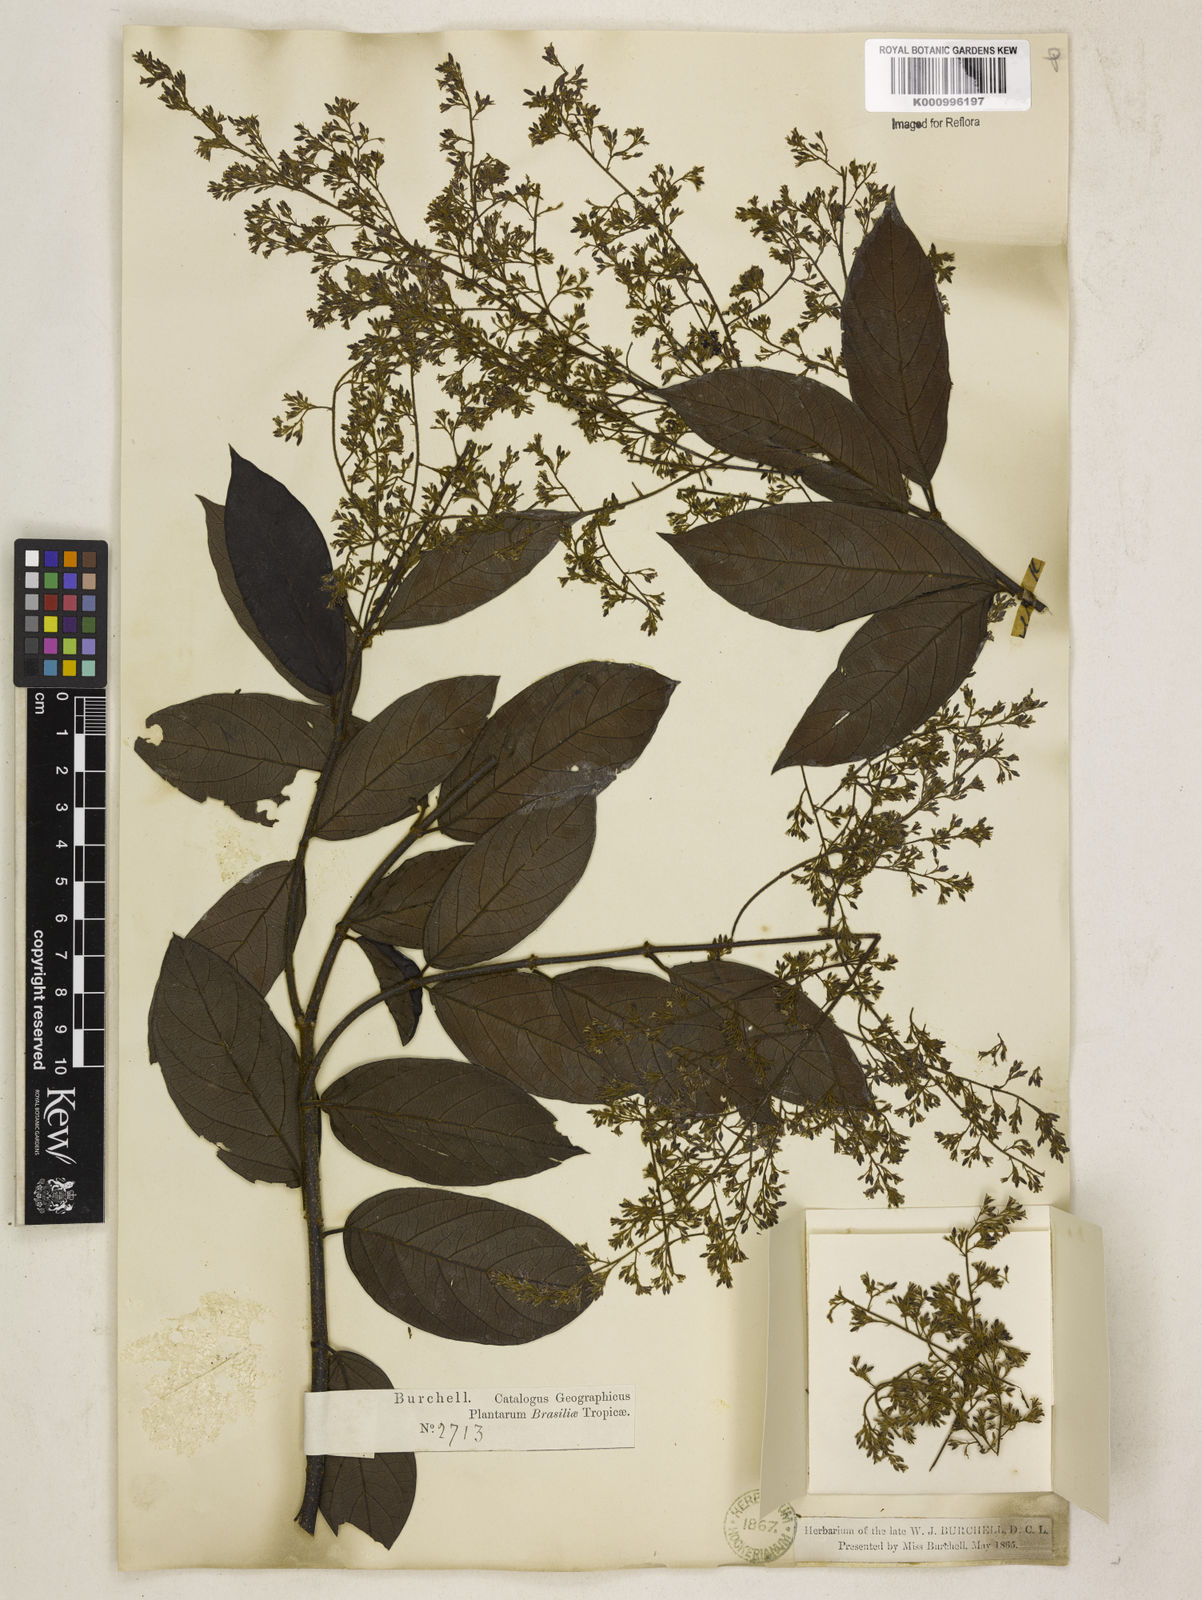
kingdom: Plantae
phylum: Tracheophyta
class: Magnoliopsida
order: Gentianales
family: Apocynaceae
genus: Forsteronia
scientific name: Forsteronia
